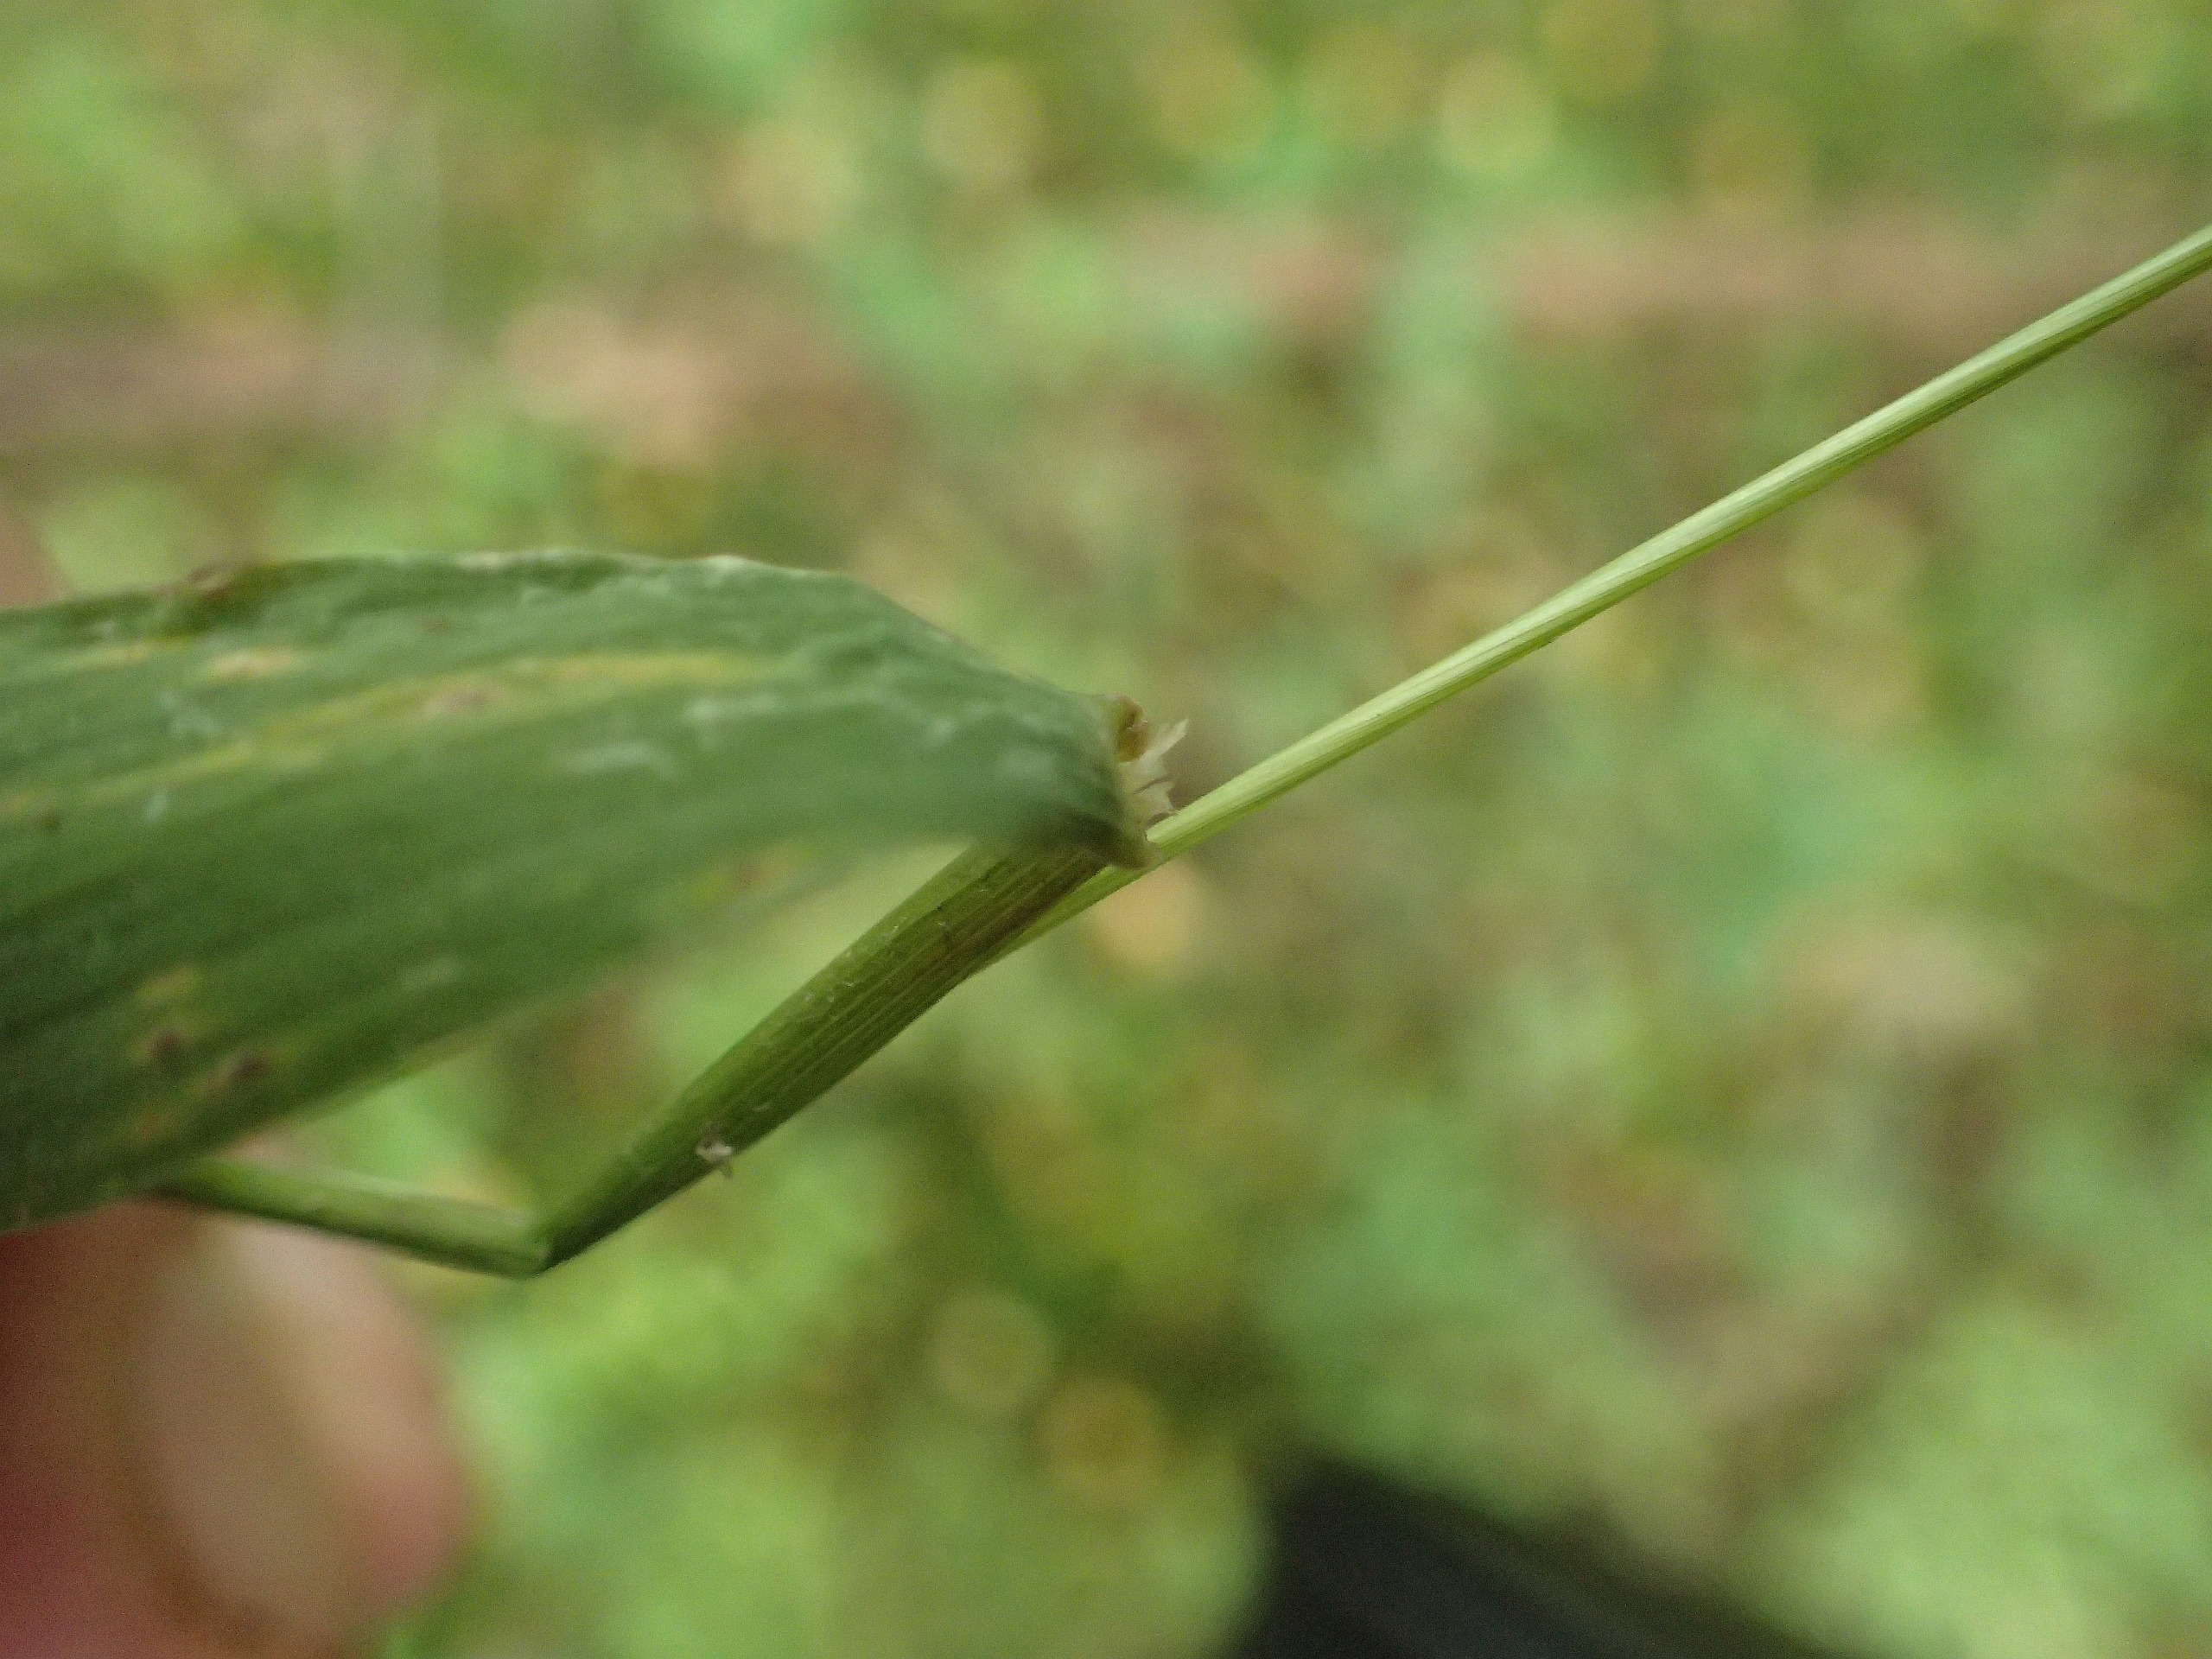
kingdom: Plantae
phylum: Tracheophyta
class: Liliopsida
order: Poales
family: Poaceae
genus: Elymus
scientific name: Elymus caninus
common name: Hundekvik
